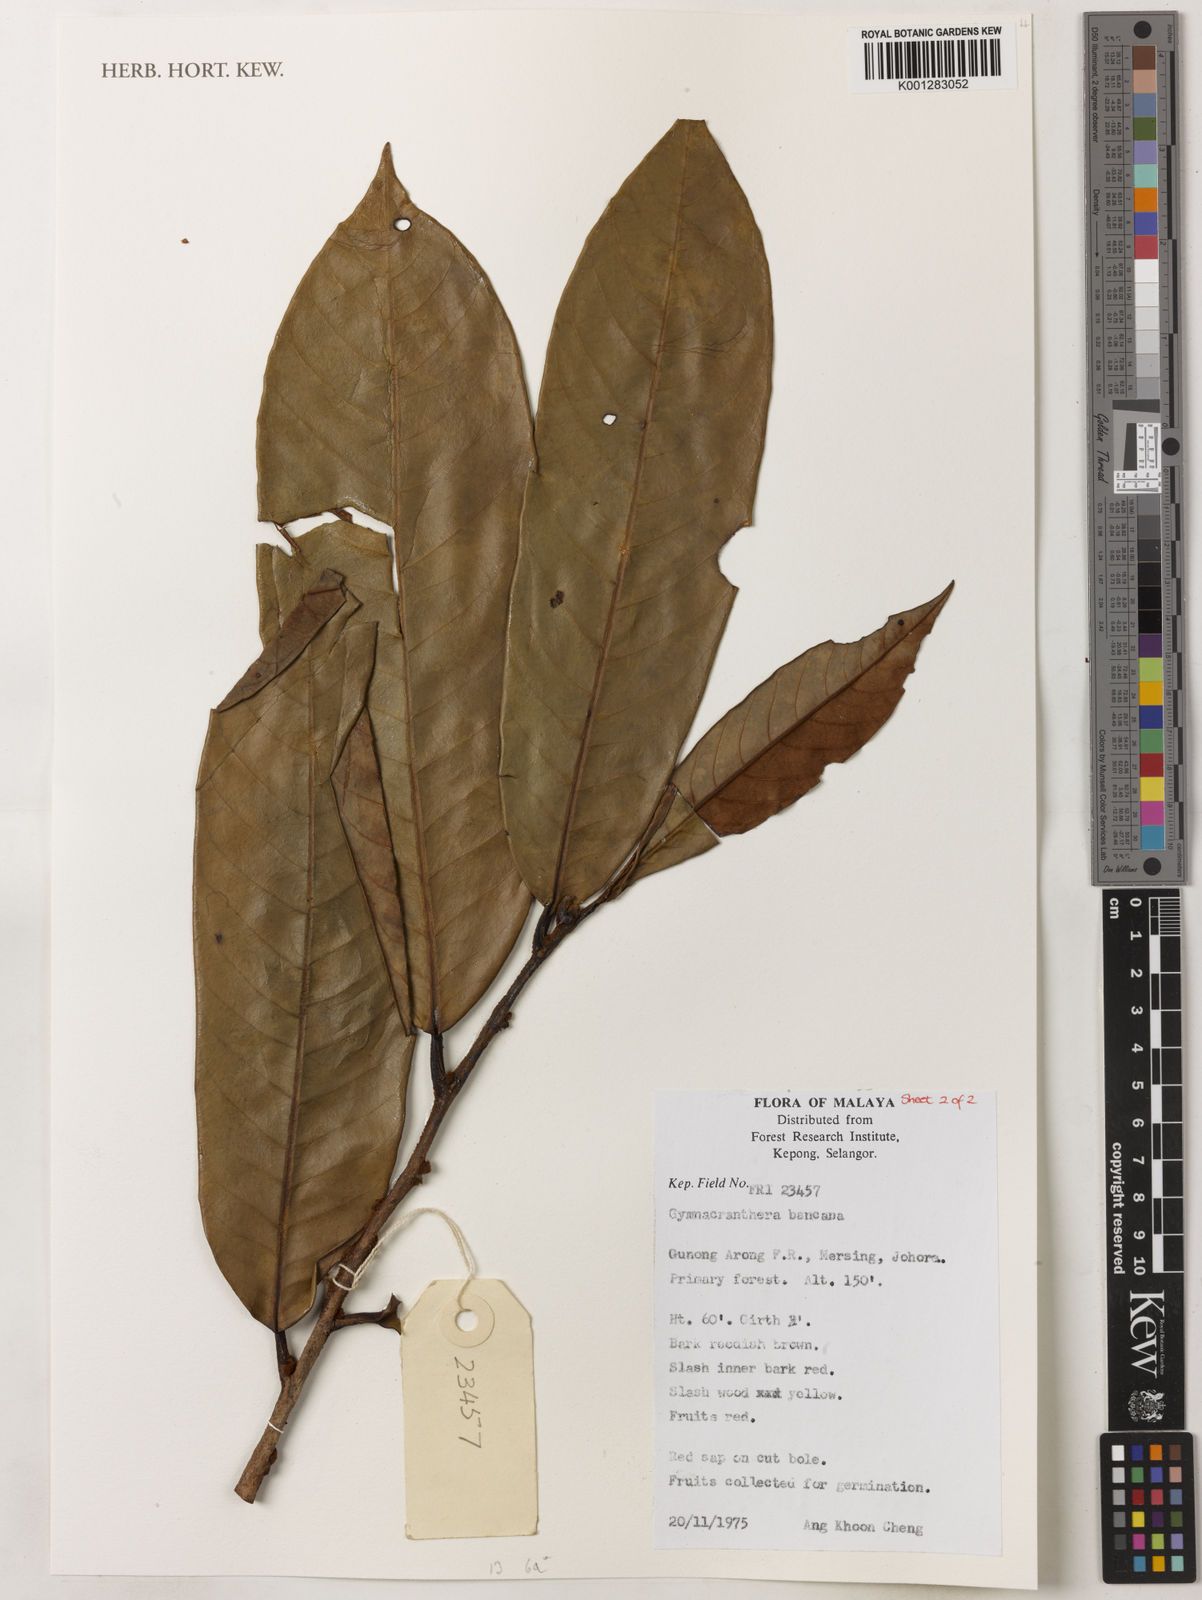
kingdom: Plantae
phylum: Tracheophyta
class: Magnoliopsida
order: Magnoliales
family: Myristicaceae
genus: Gymnacranthera
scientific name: Gymnacranthera bancana
